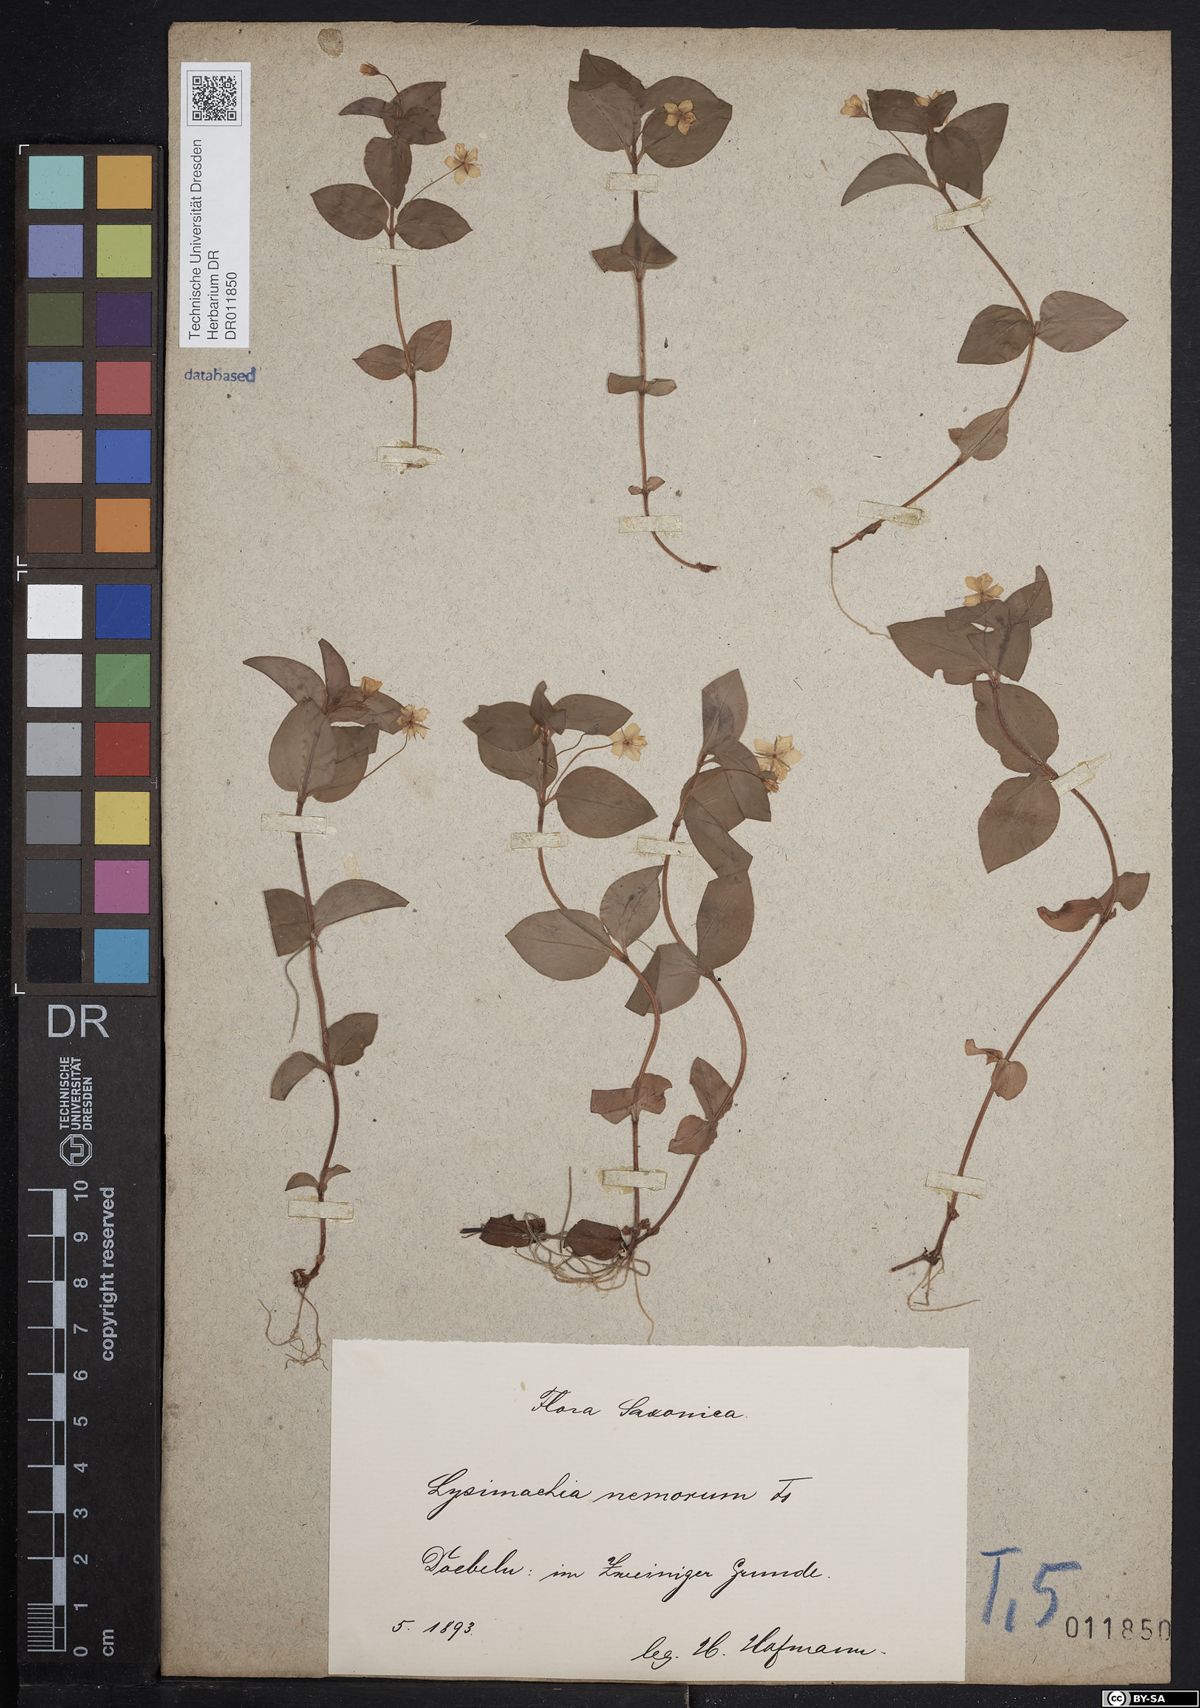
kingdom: Plantae
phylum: Tracheophyta
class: Magnoliopsida
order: Ericales
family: Primulaceae
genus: Lysimachia
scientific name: Lysimachia nemorum
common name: Yellow pimpernel
